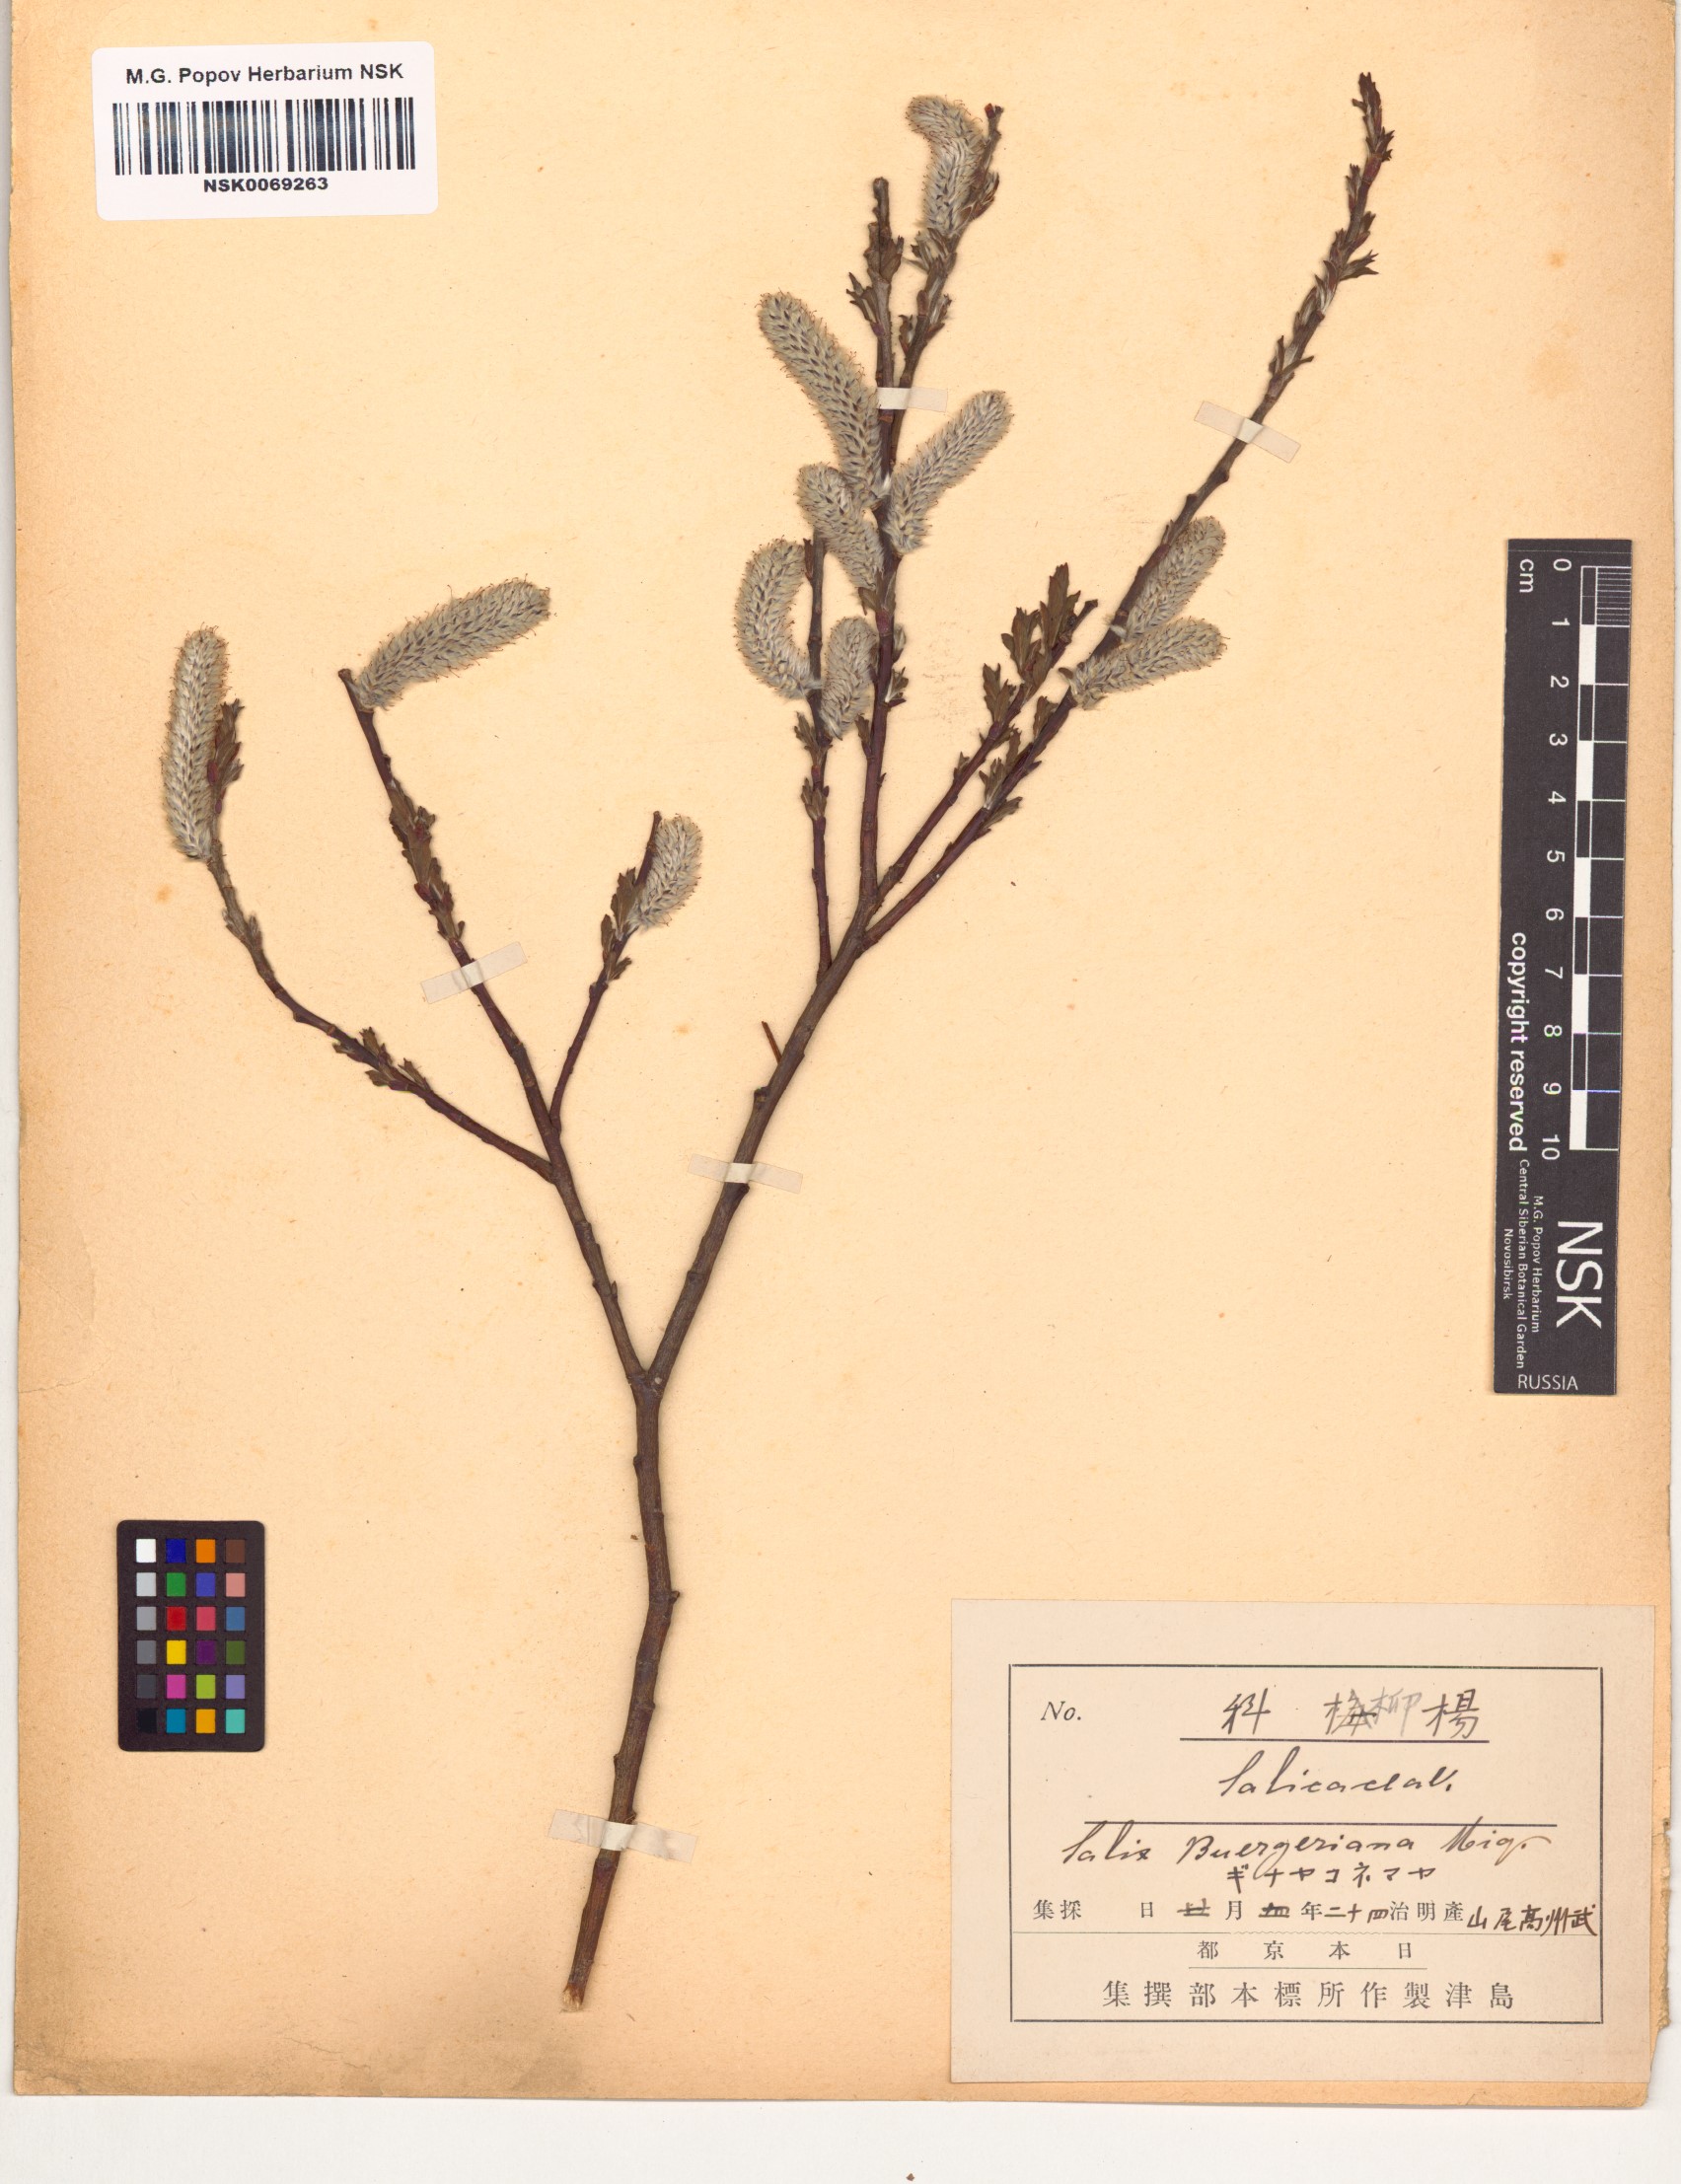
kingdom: Plantae
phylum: Tracheophyta
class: Magnoliopsida
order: Malpighiales
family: Salicaceae
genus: Salix
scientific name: Salix sieboldiana
